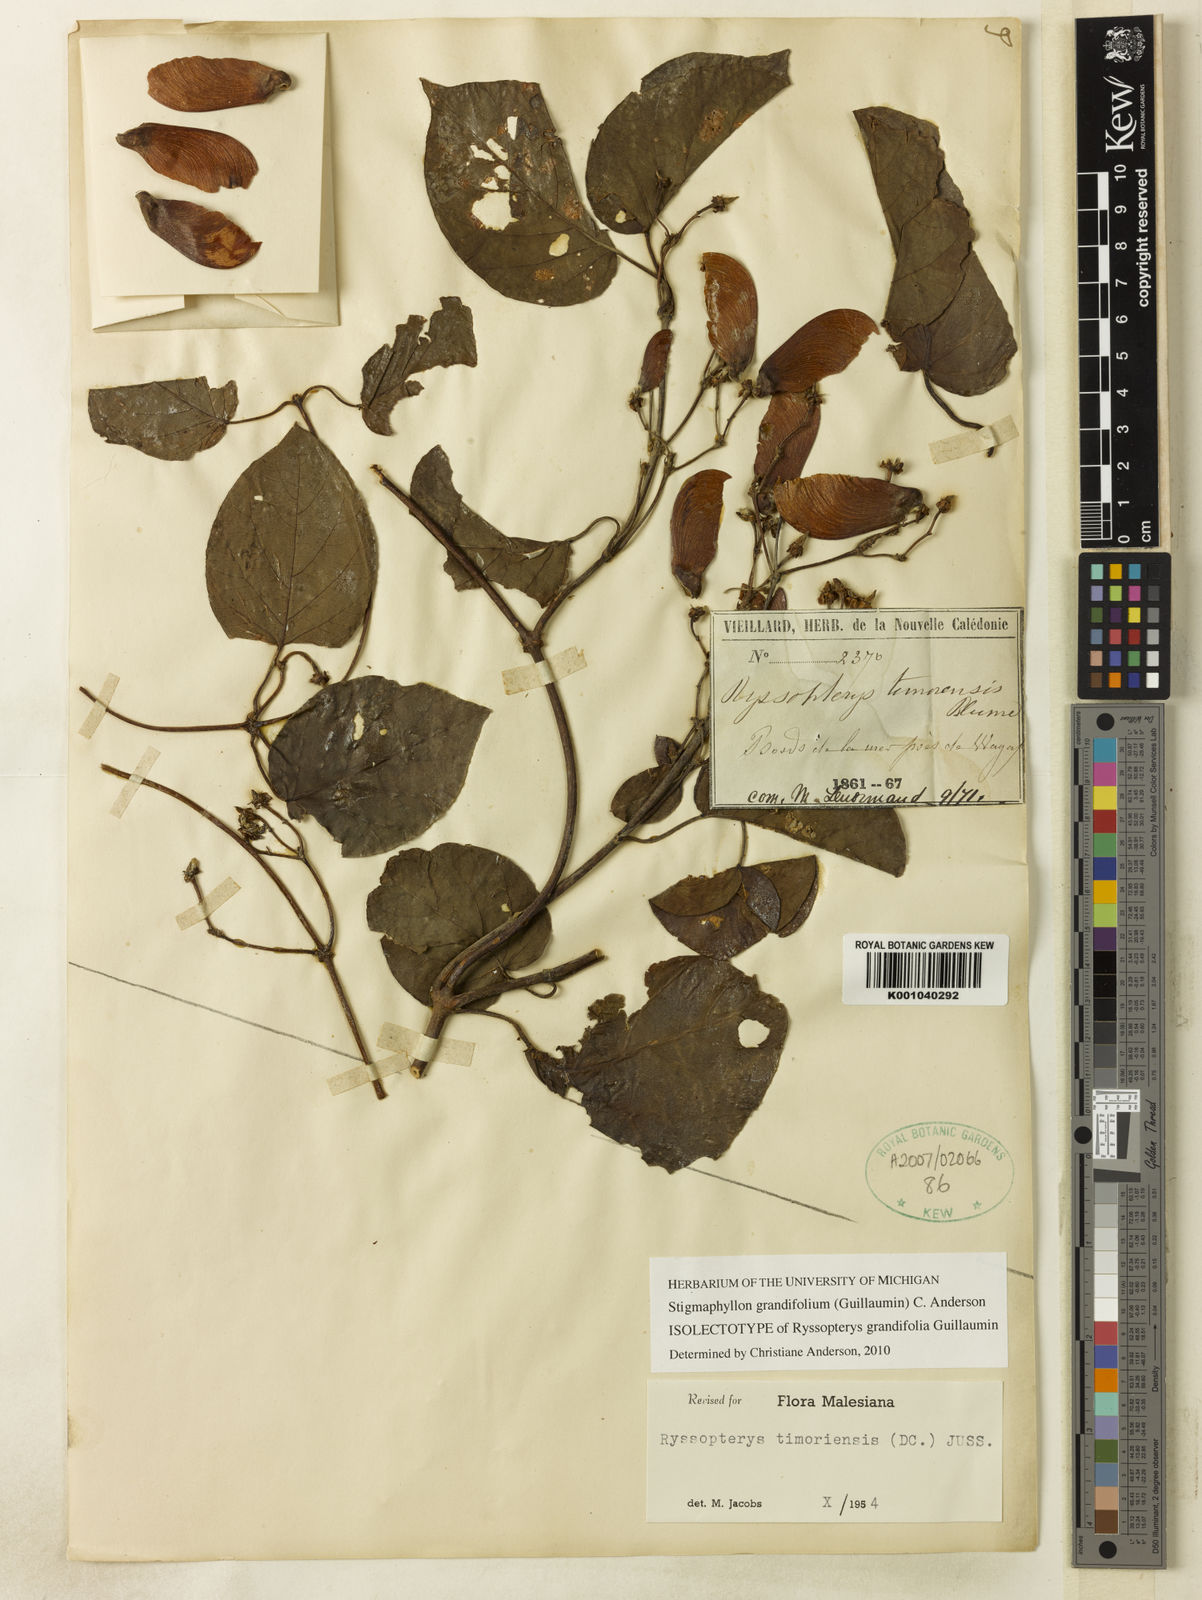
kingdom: Plantae
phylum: Tracheophyta
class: Magnoliopsida
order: Malpighiales
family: Malpighiaceae
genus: Stigmaphyllon
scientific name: Stigmaphyllon grandifolium
